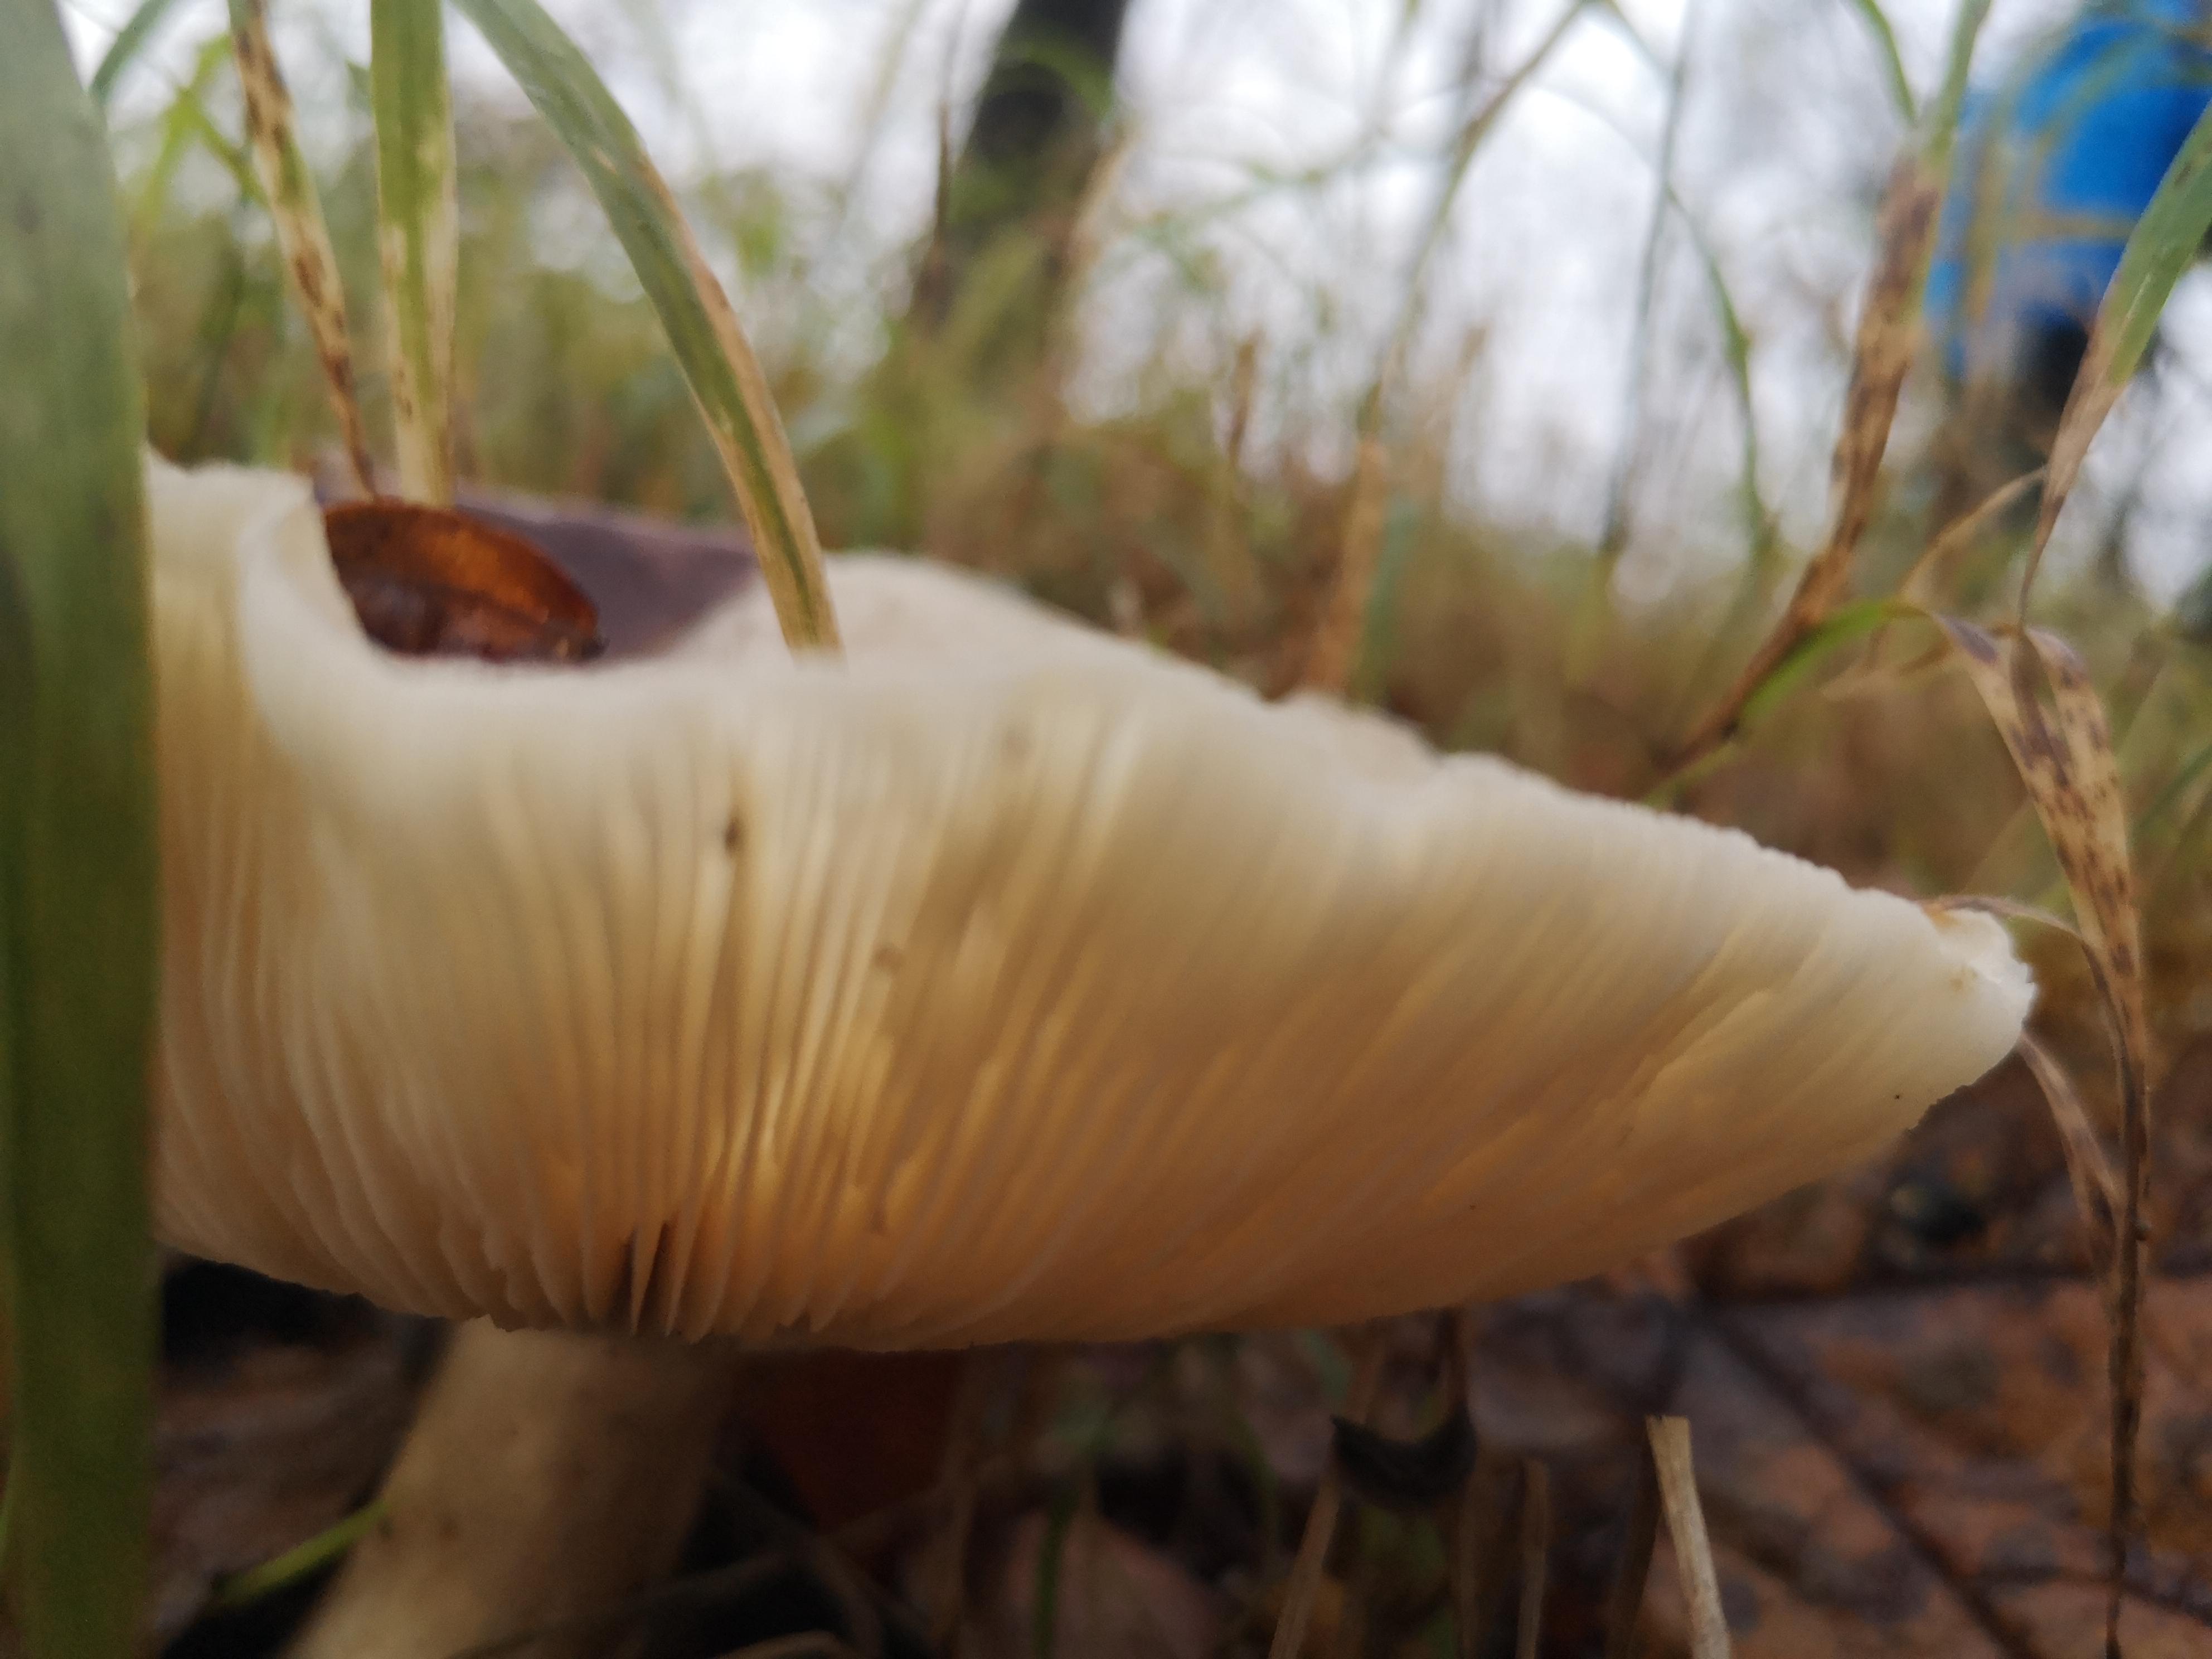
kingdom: Fungi
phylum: Basidiomycota
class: Agaricomycetes
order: Agaricales
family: Tricholomataceae
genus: Clitocybe
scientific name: Clitocybe nebularis
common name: tåge-tragthat
